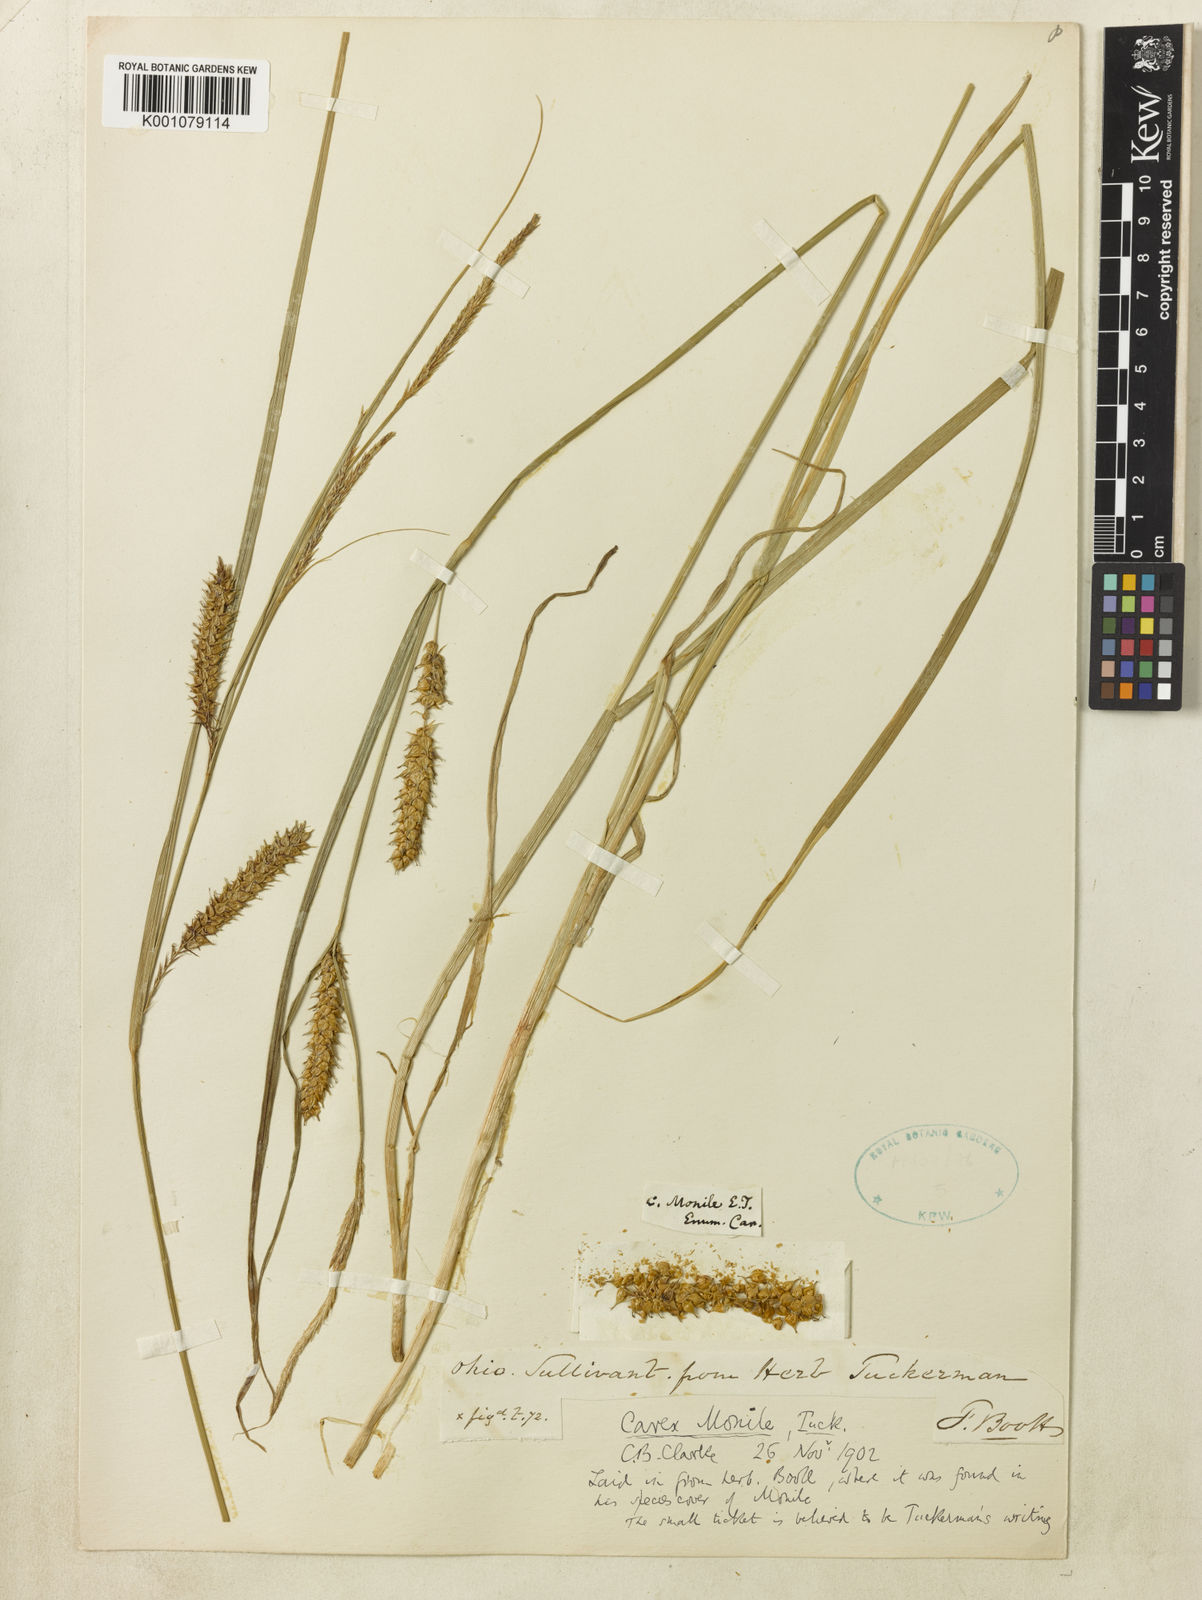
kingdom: Plantae
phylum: Tracheophyta
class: Liliopsida
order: Poales
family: Cyperaceae
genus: Carex
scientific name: Carex vesicaria
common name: Bladder-sedge
